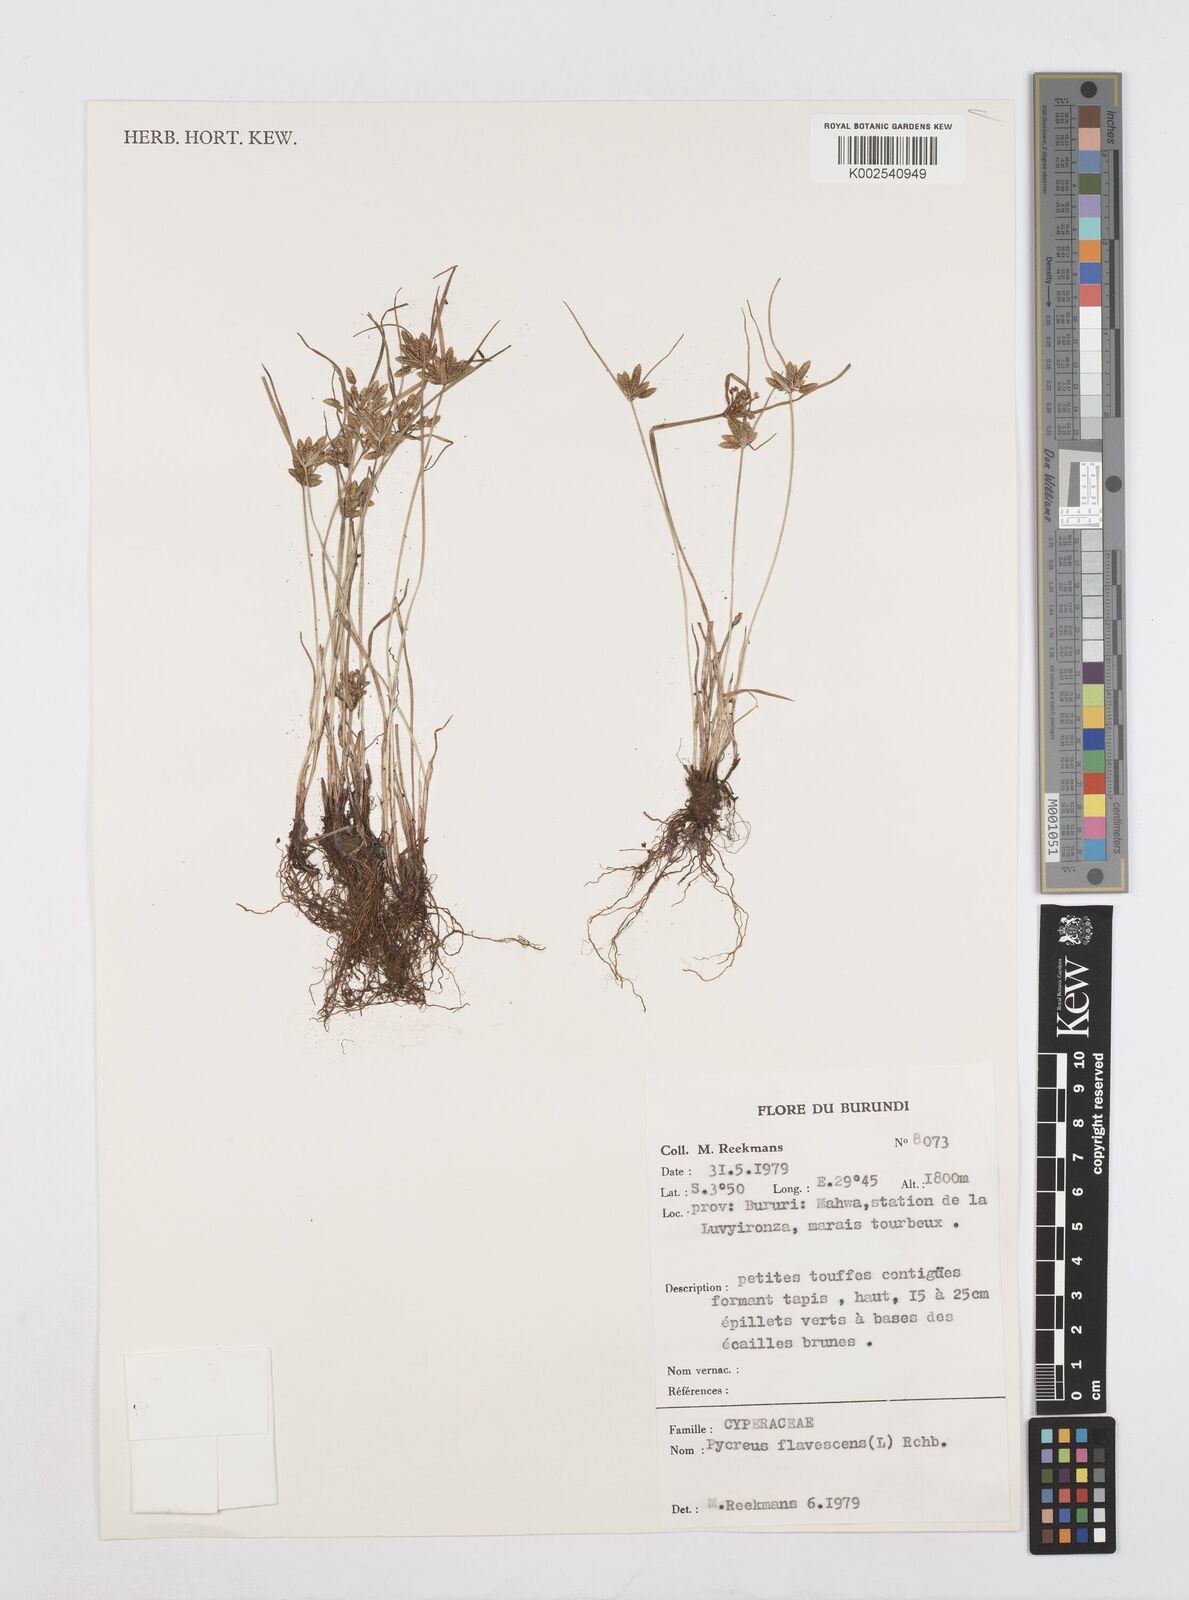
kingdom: Plantae
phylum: Tracheophyta
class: Liliopsida
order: Poales
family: Cyperaceae
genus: Cyperus
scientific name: Cyperus flavescens
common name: Yellow galingale
